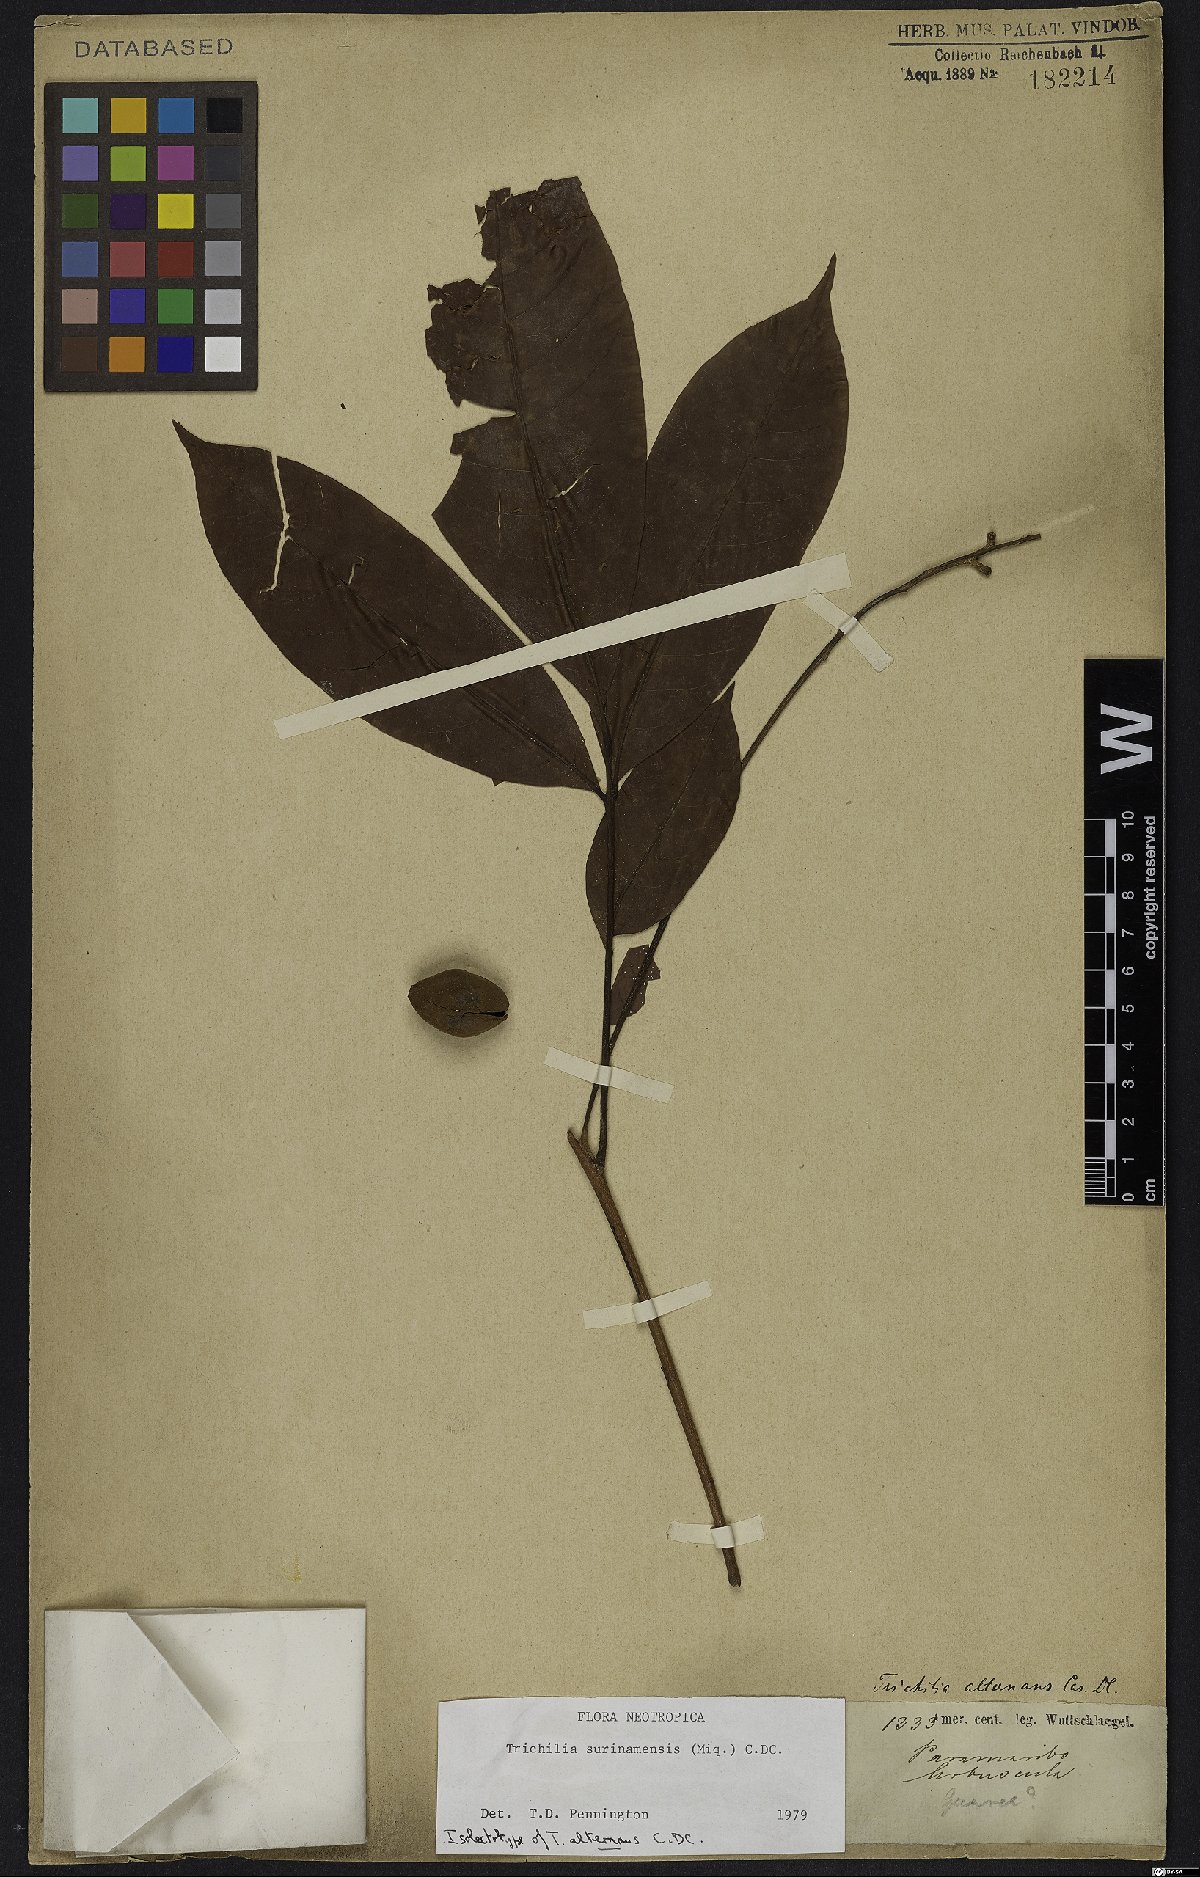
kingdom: Plantae
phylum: Tracheophyta
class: Magnoliopsida
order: Sapindales
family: Meliaceae
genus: Trichilia
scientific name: Trichilia surinamensis
